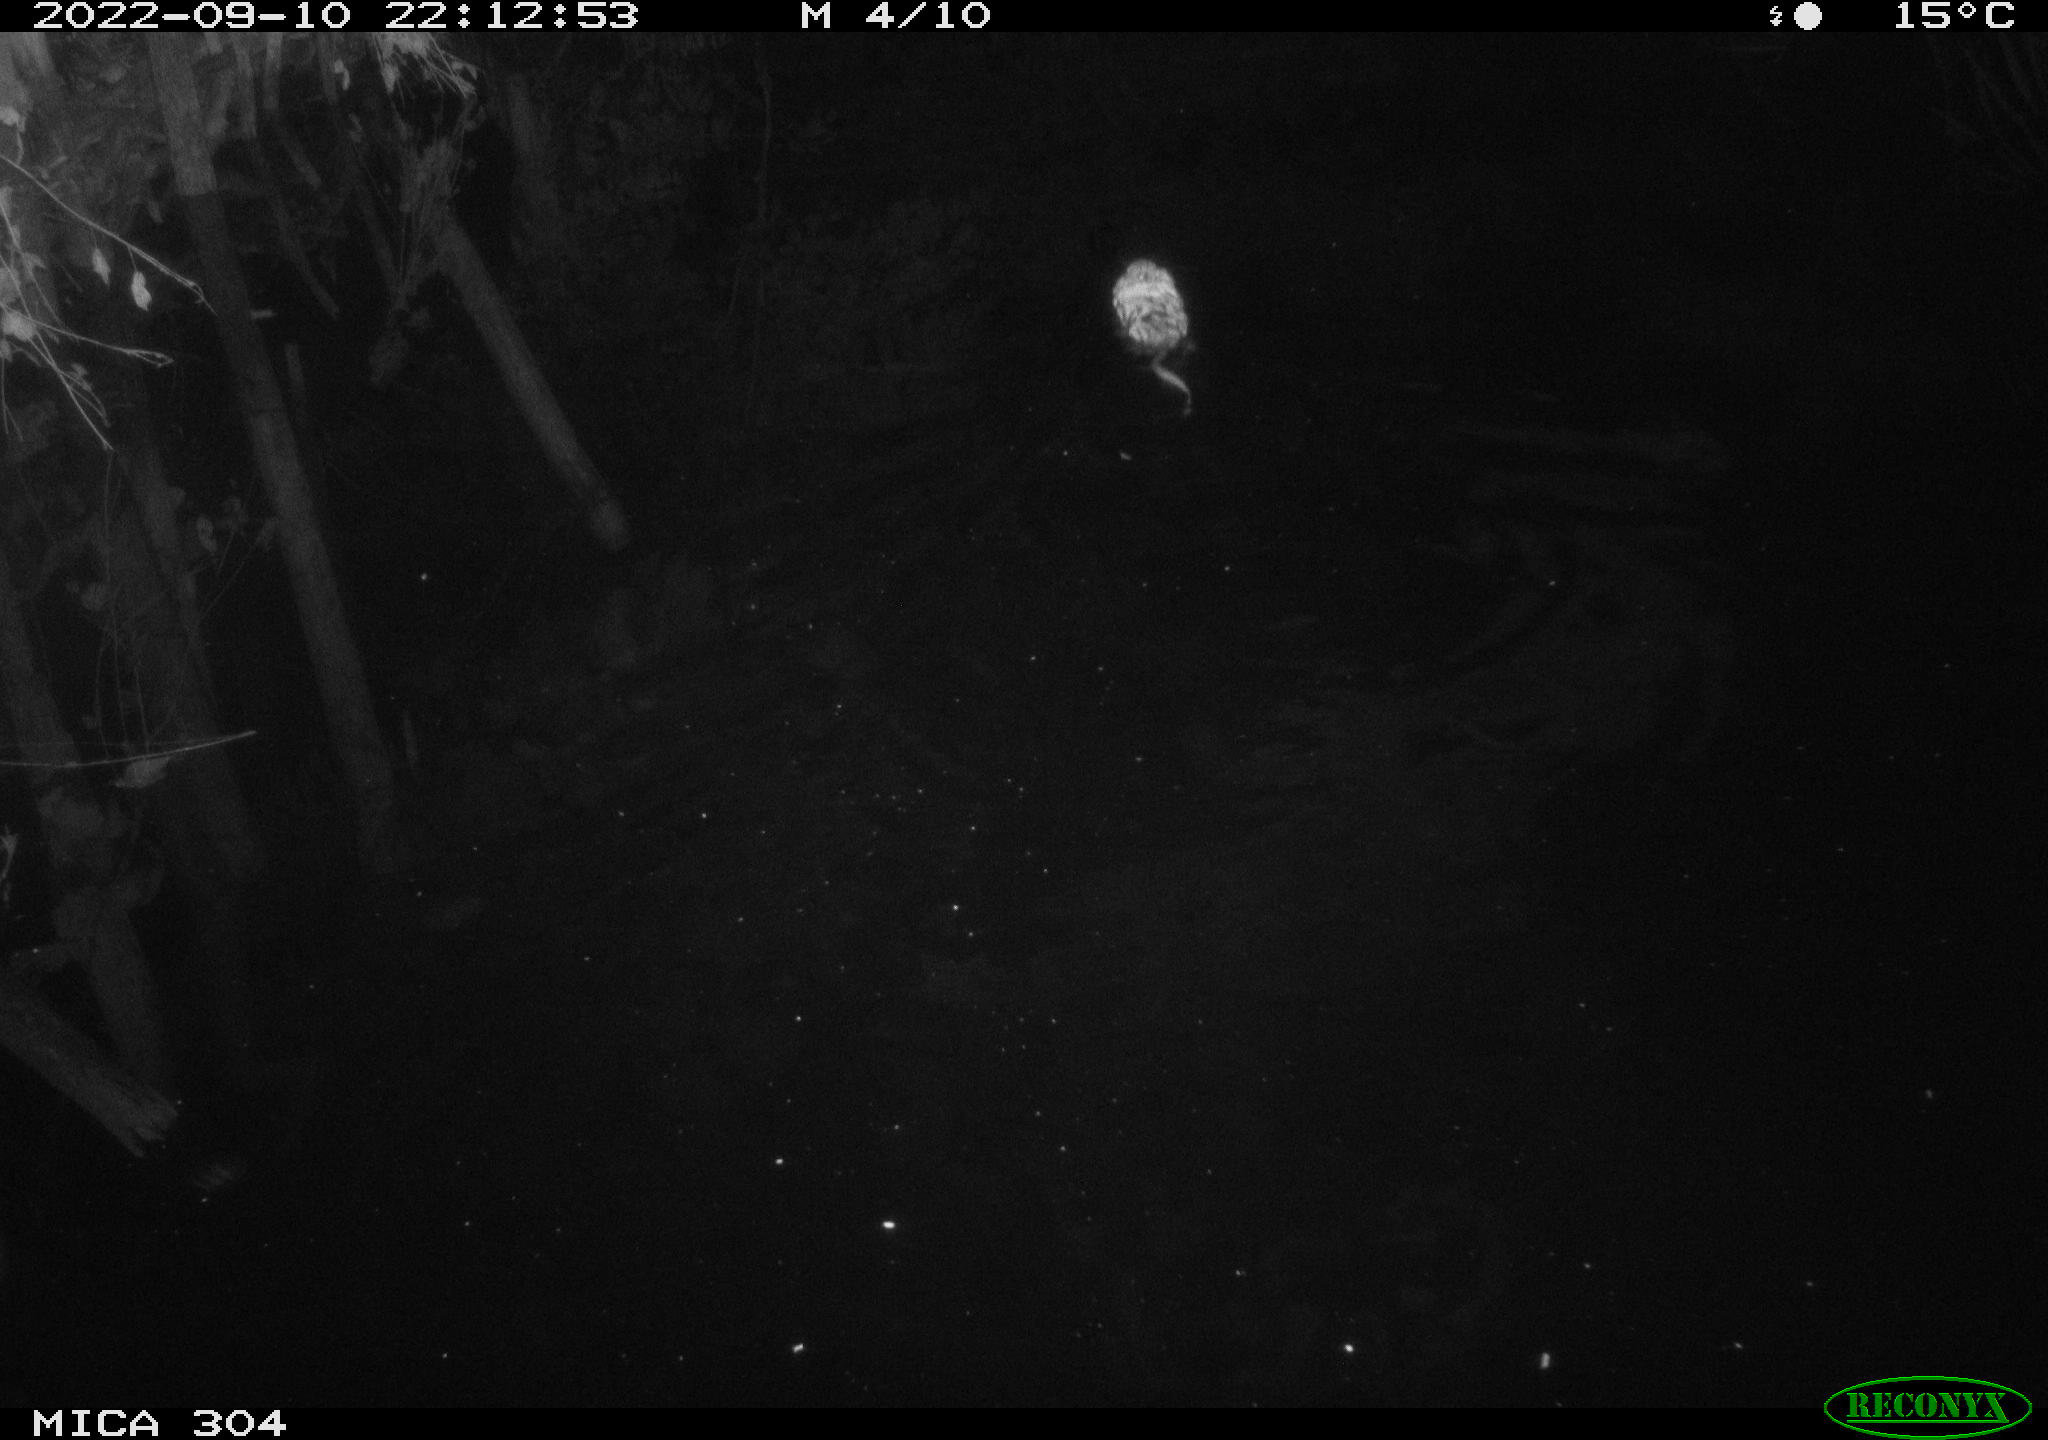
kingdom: Animalia
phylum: Chordata
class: Mammalia
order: Rodentia
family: Cricetidae
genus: Ondatra
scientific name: Ondatra zibethicus
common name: Muskrat
